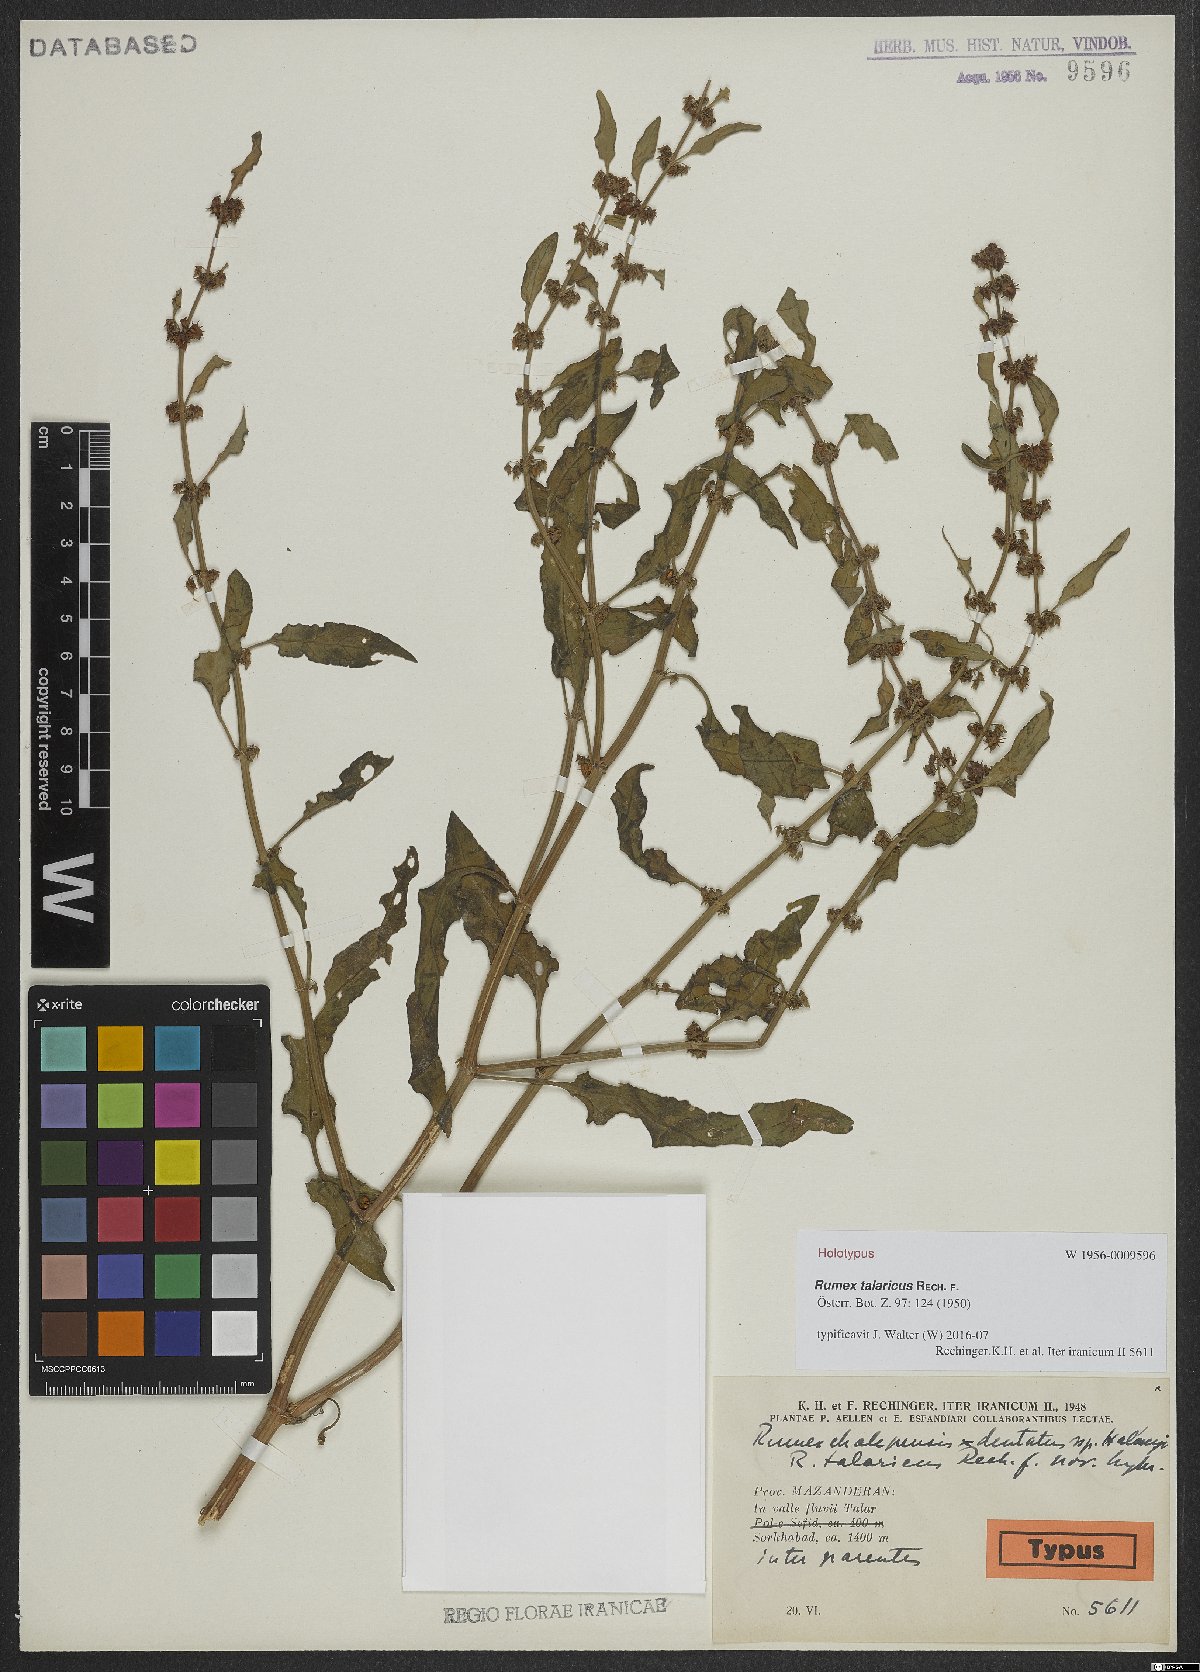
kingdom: Plantae
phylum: Tracheophyta
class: Magnoliopsida
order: Caryophyllales
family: Polygonaceae
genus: Rumex
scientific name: Rumex talaricus
